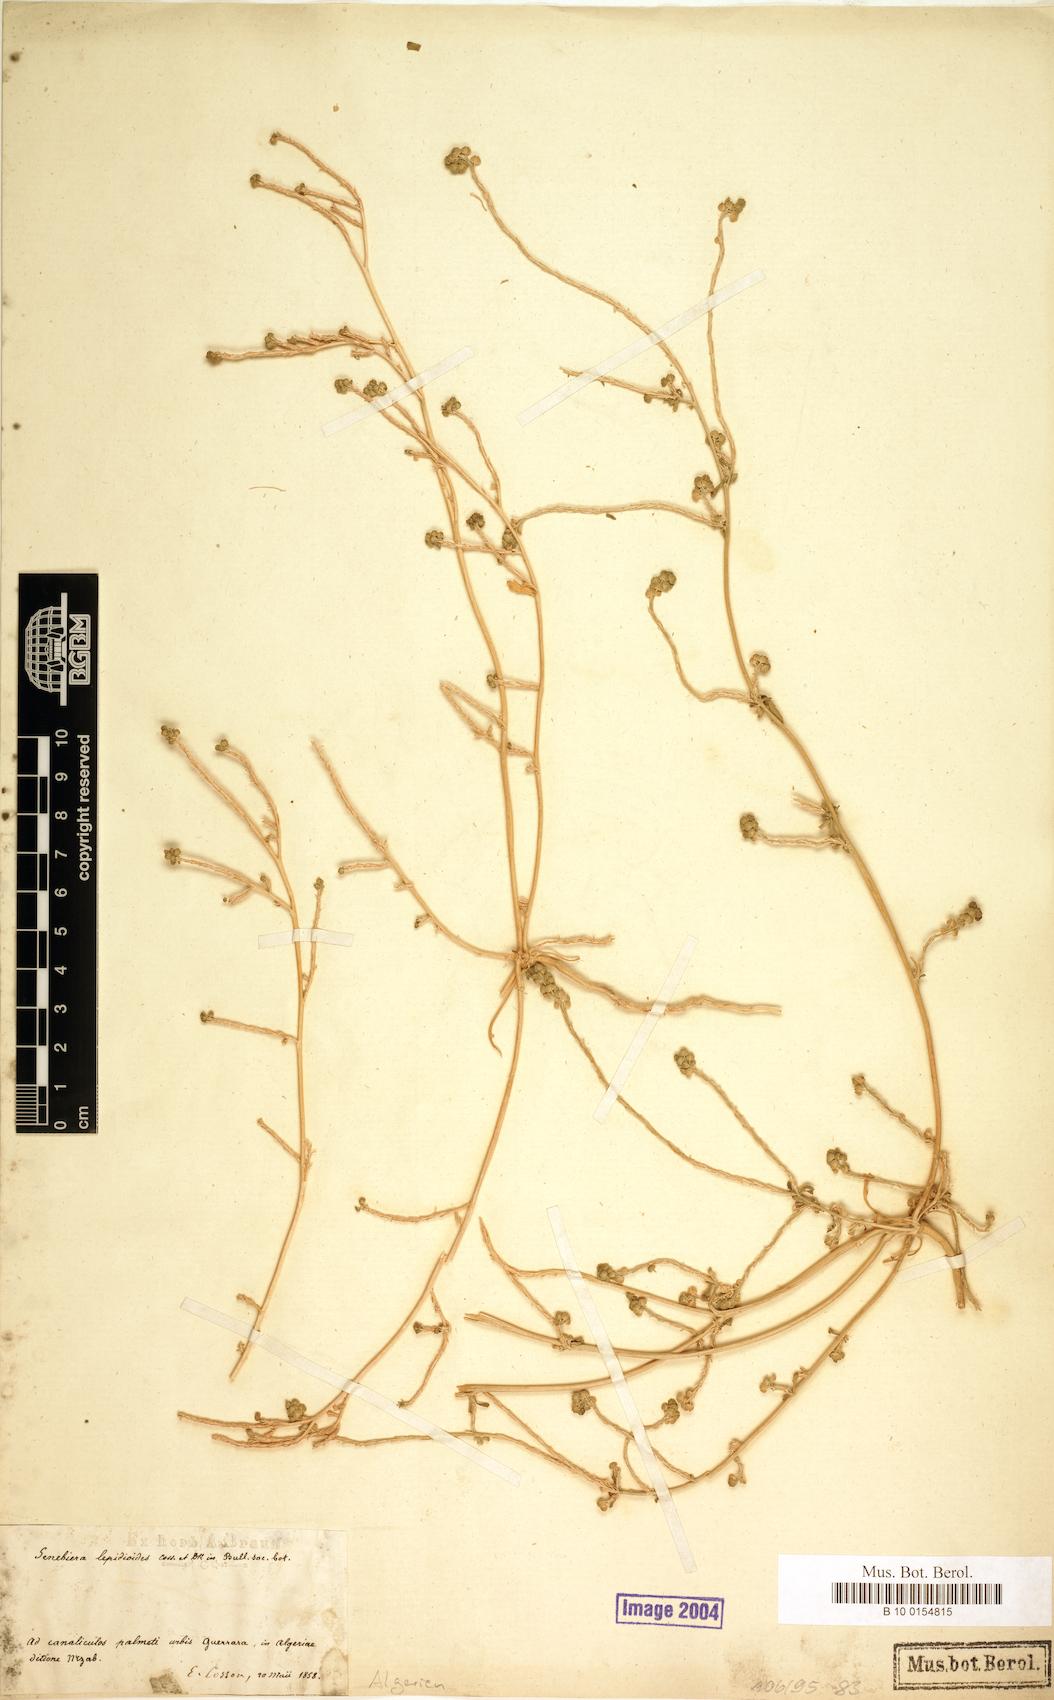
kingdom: Plantae
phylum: Tracheophyta
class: Magnoliopsida
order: Brassicales
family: Brassicaceae
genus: Lepidium
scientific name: Lepidium lepidioides
